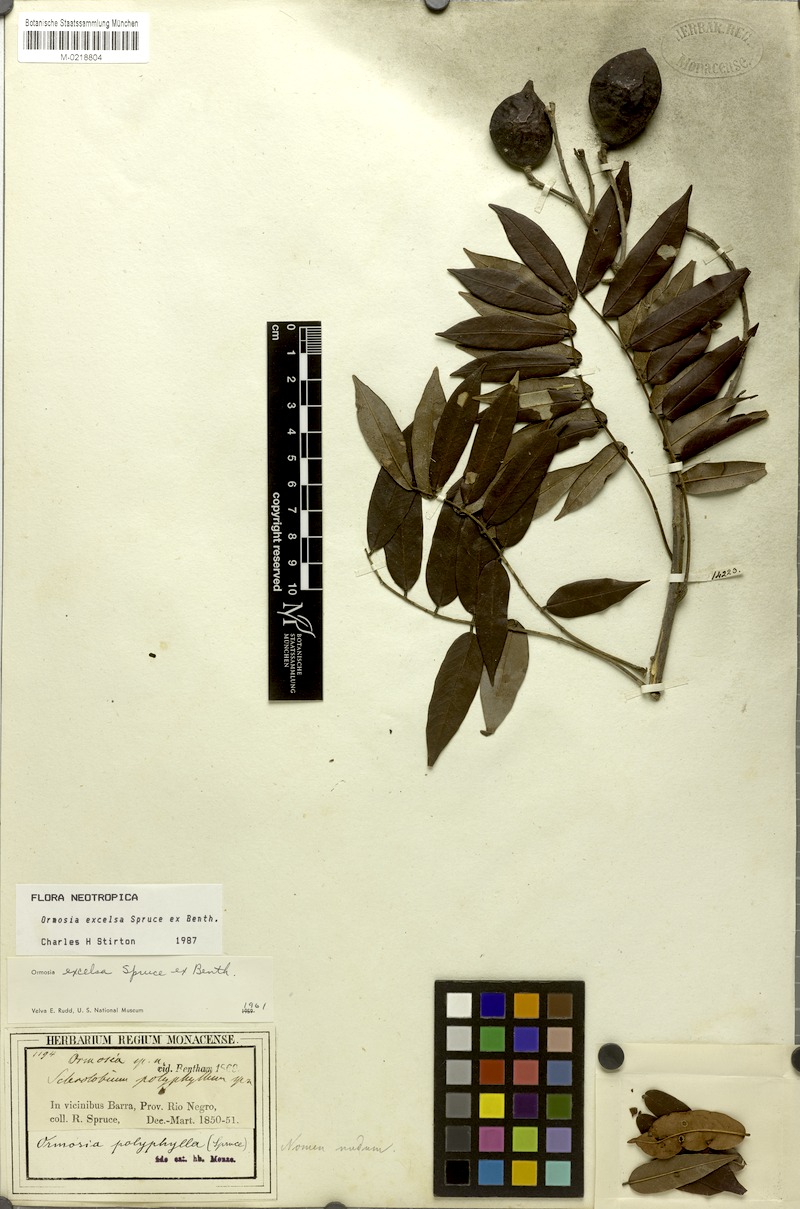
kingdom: Plantae
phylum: Tracheophyta
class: Magnoliopsida
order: Fabales
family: Fabaceae
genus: Ormosia
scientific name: Ormosia excelsa
